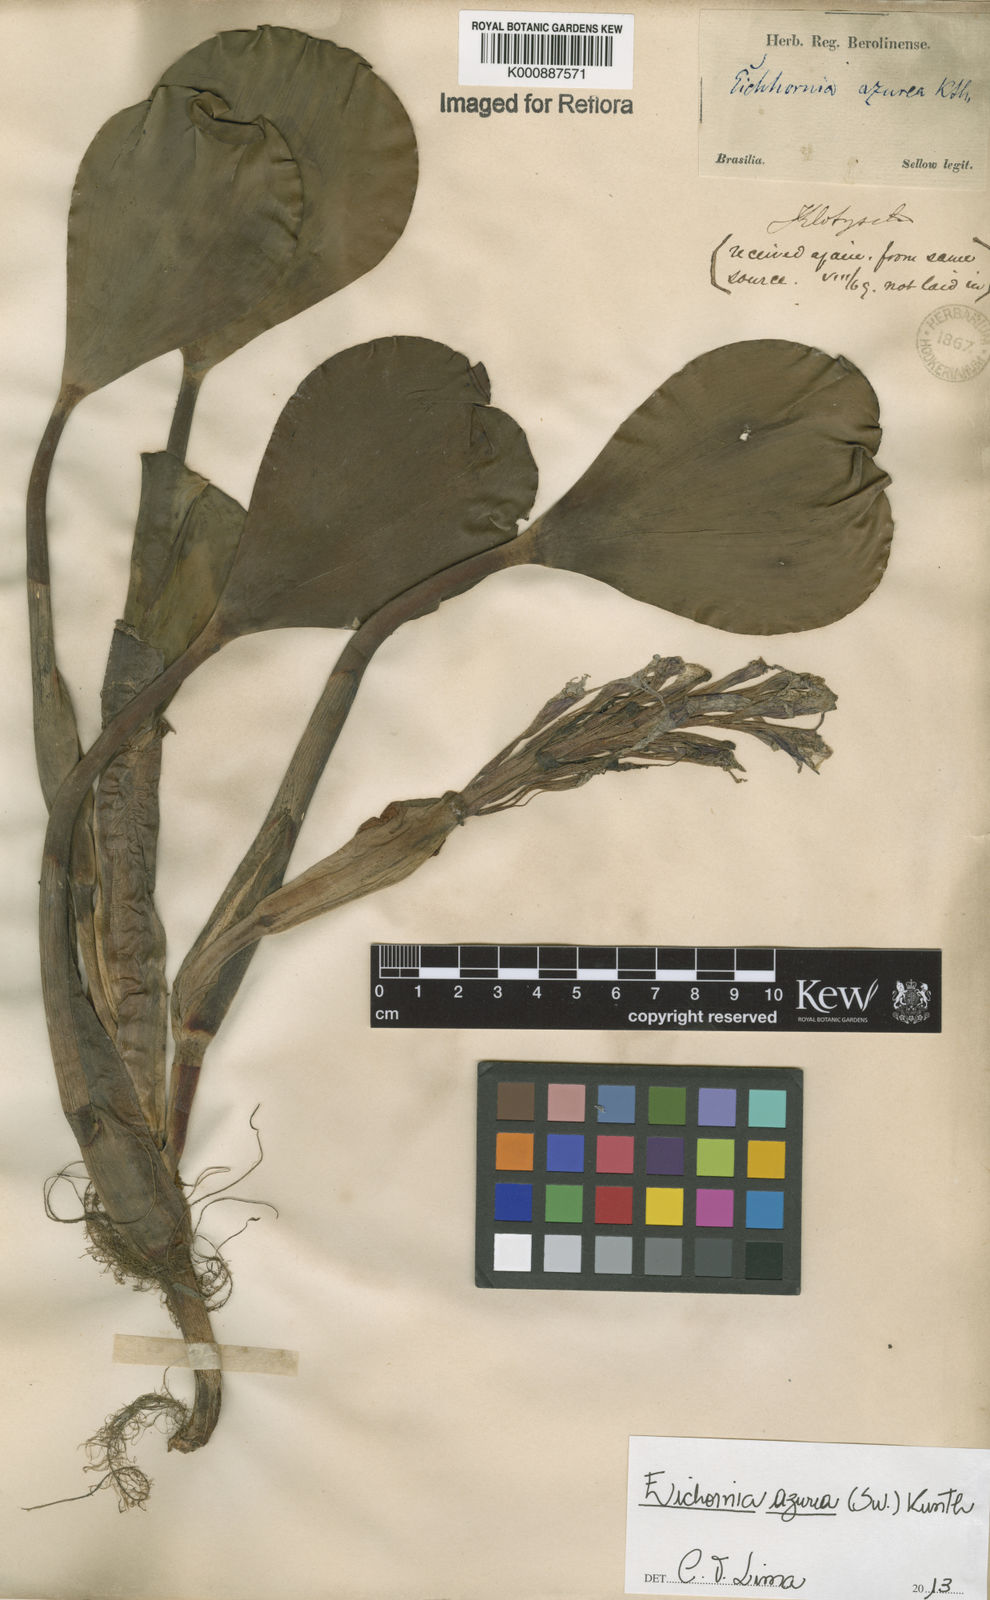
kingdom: Plantae
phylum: Tracheophyta
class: Liliopsida
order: Commelinales
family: Pontederiaceae
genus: Pontederia
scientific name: Pontederia azurea
